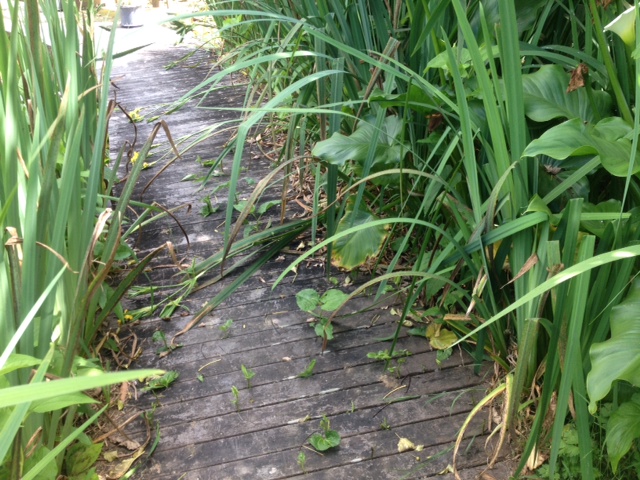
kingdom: Plantae
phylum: Tracheophyta
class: Magnoliopsida
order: Piperales
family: Saururaceae
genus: Saururus
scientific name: Saururus cernuus
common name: Lizard's-tail
